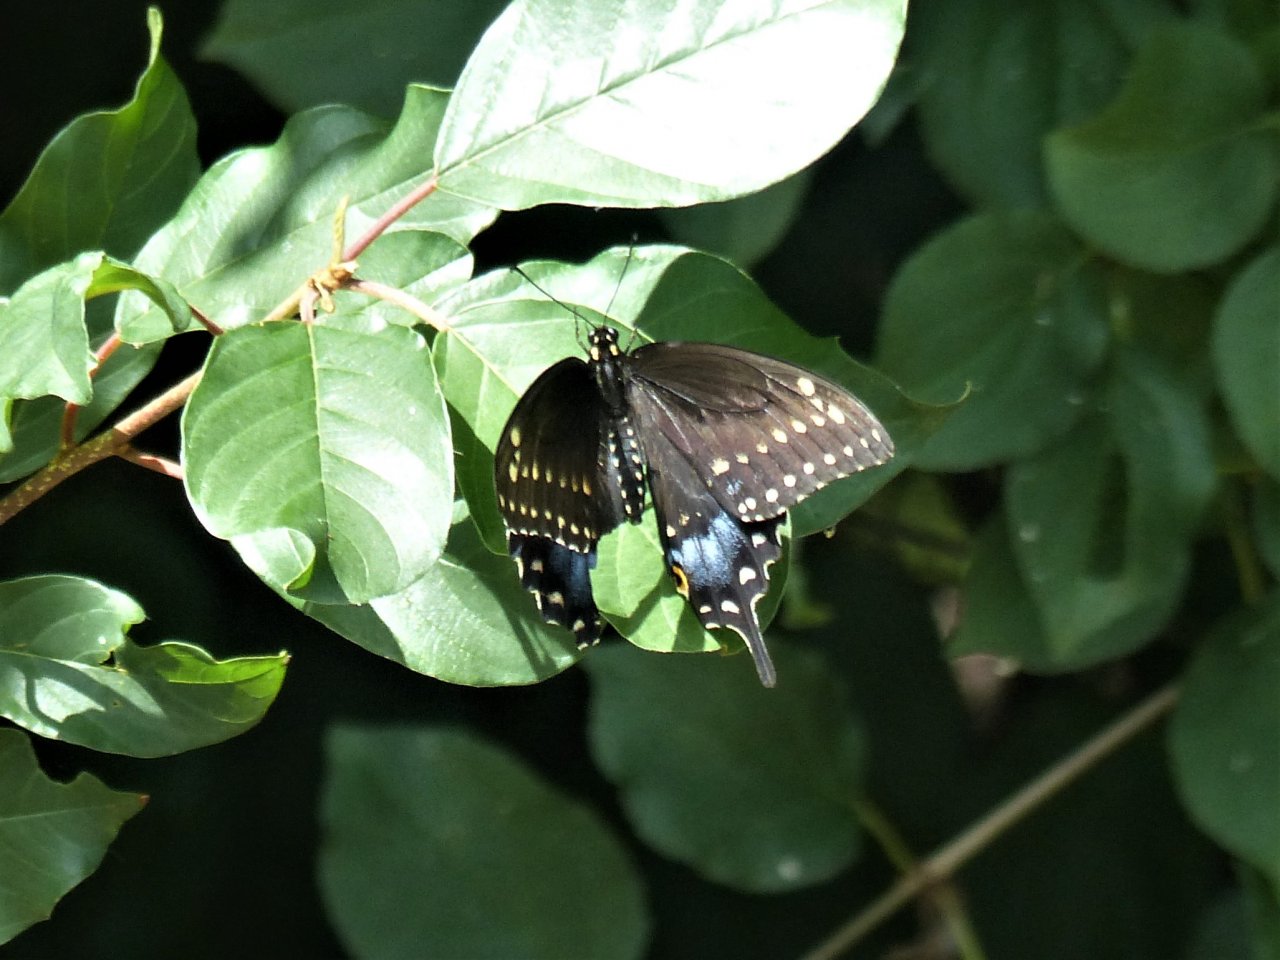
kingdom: Animalia
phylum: Arthropoda
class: Insecta
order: Lepidoptera
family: Papilionidae
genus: Papilio
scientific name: Papilio polyxenes
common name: Black Swallowtail
